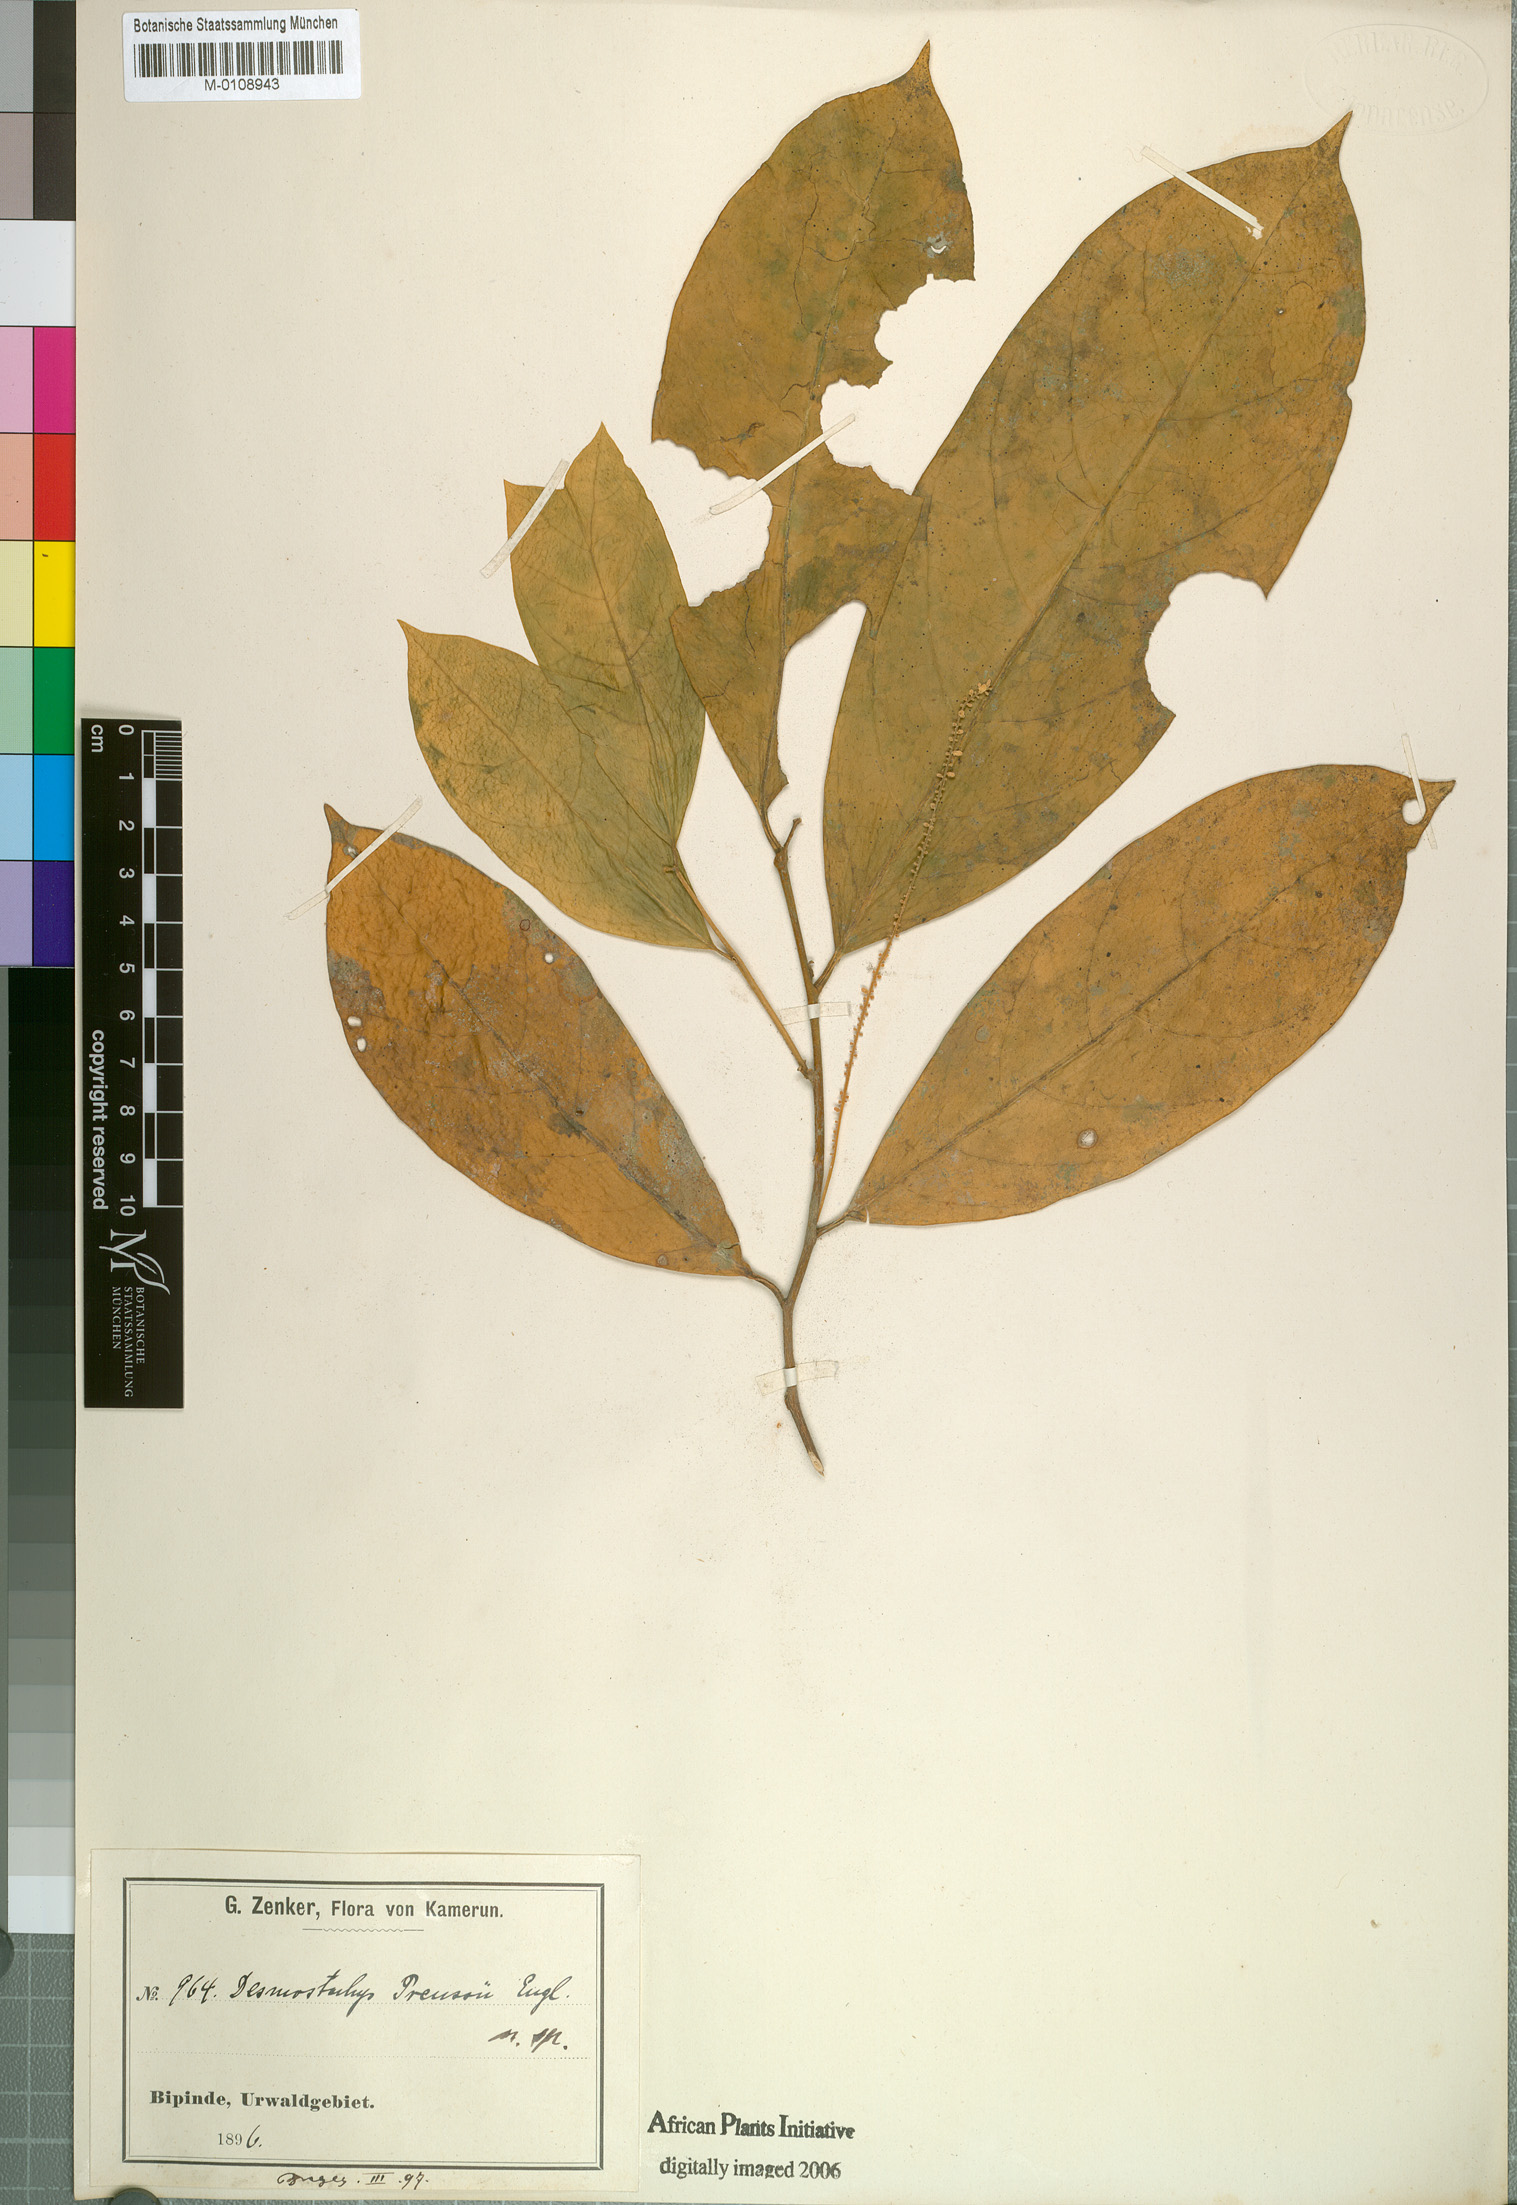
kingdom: Plantae
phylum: Tracheophyta
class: Magnoliopsida
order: Icacinales
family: Icacinaceae
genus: Vadensea
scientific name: Vadensea tenuifolia
